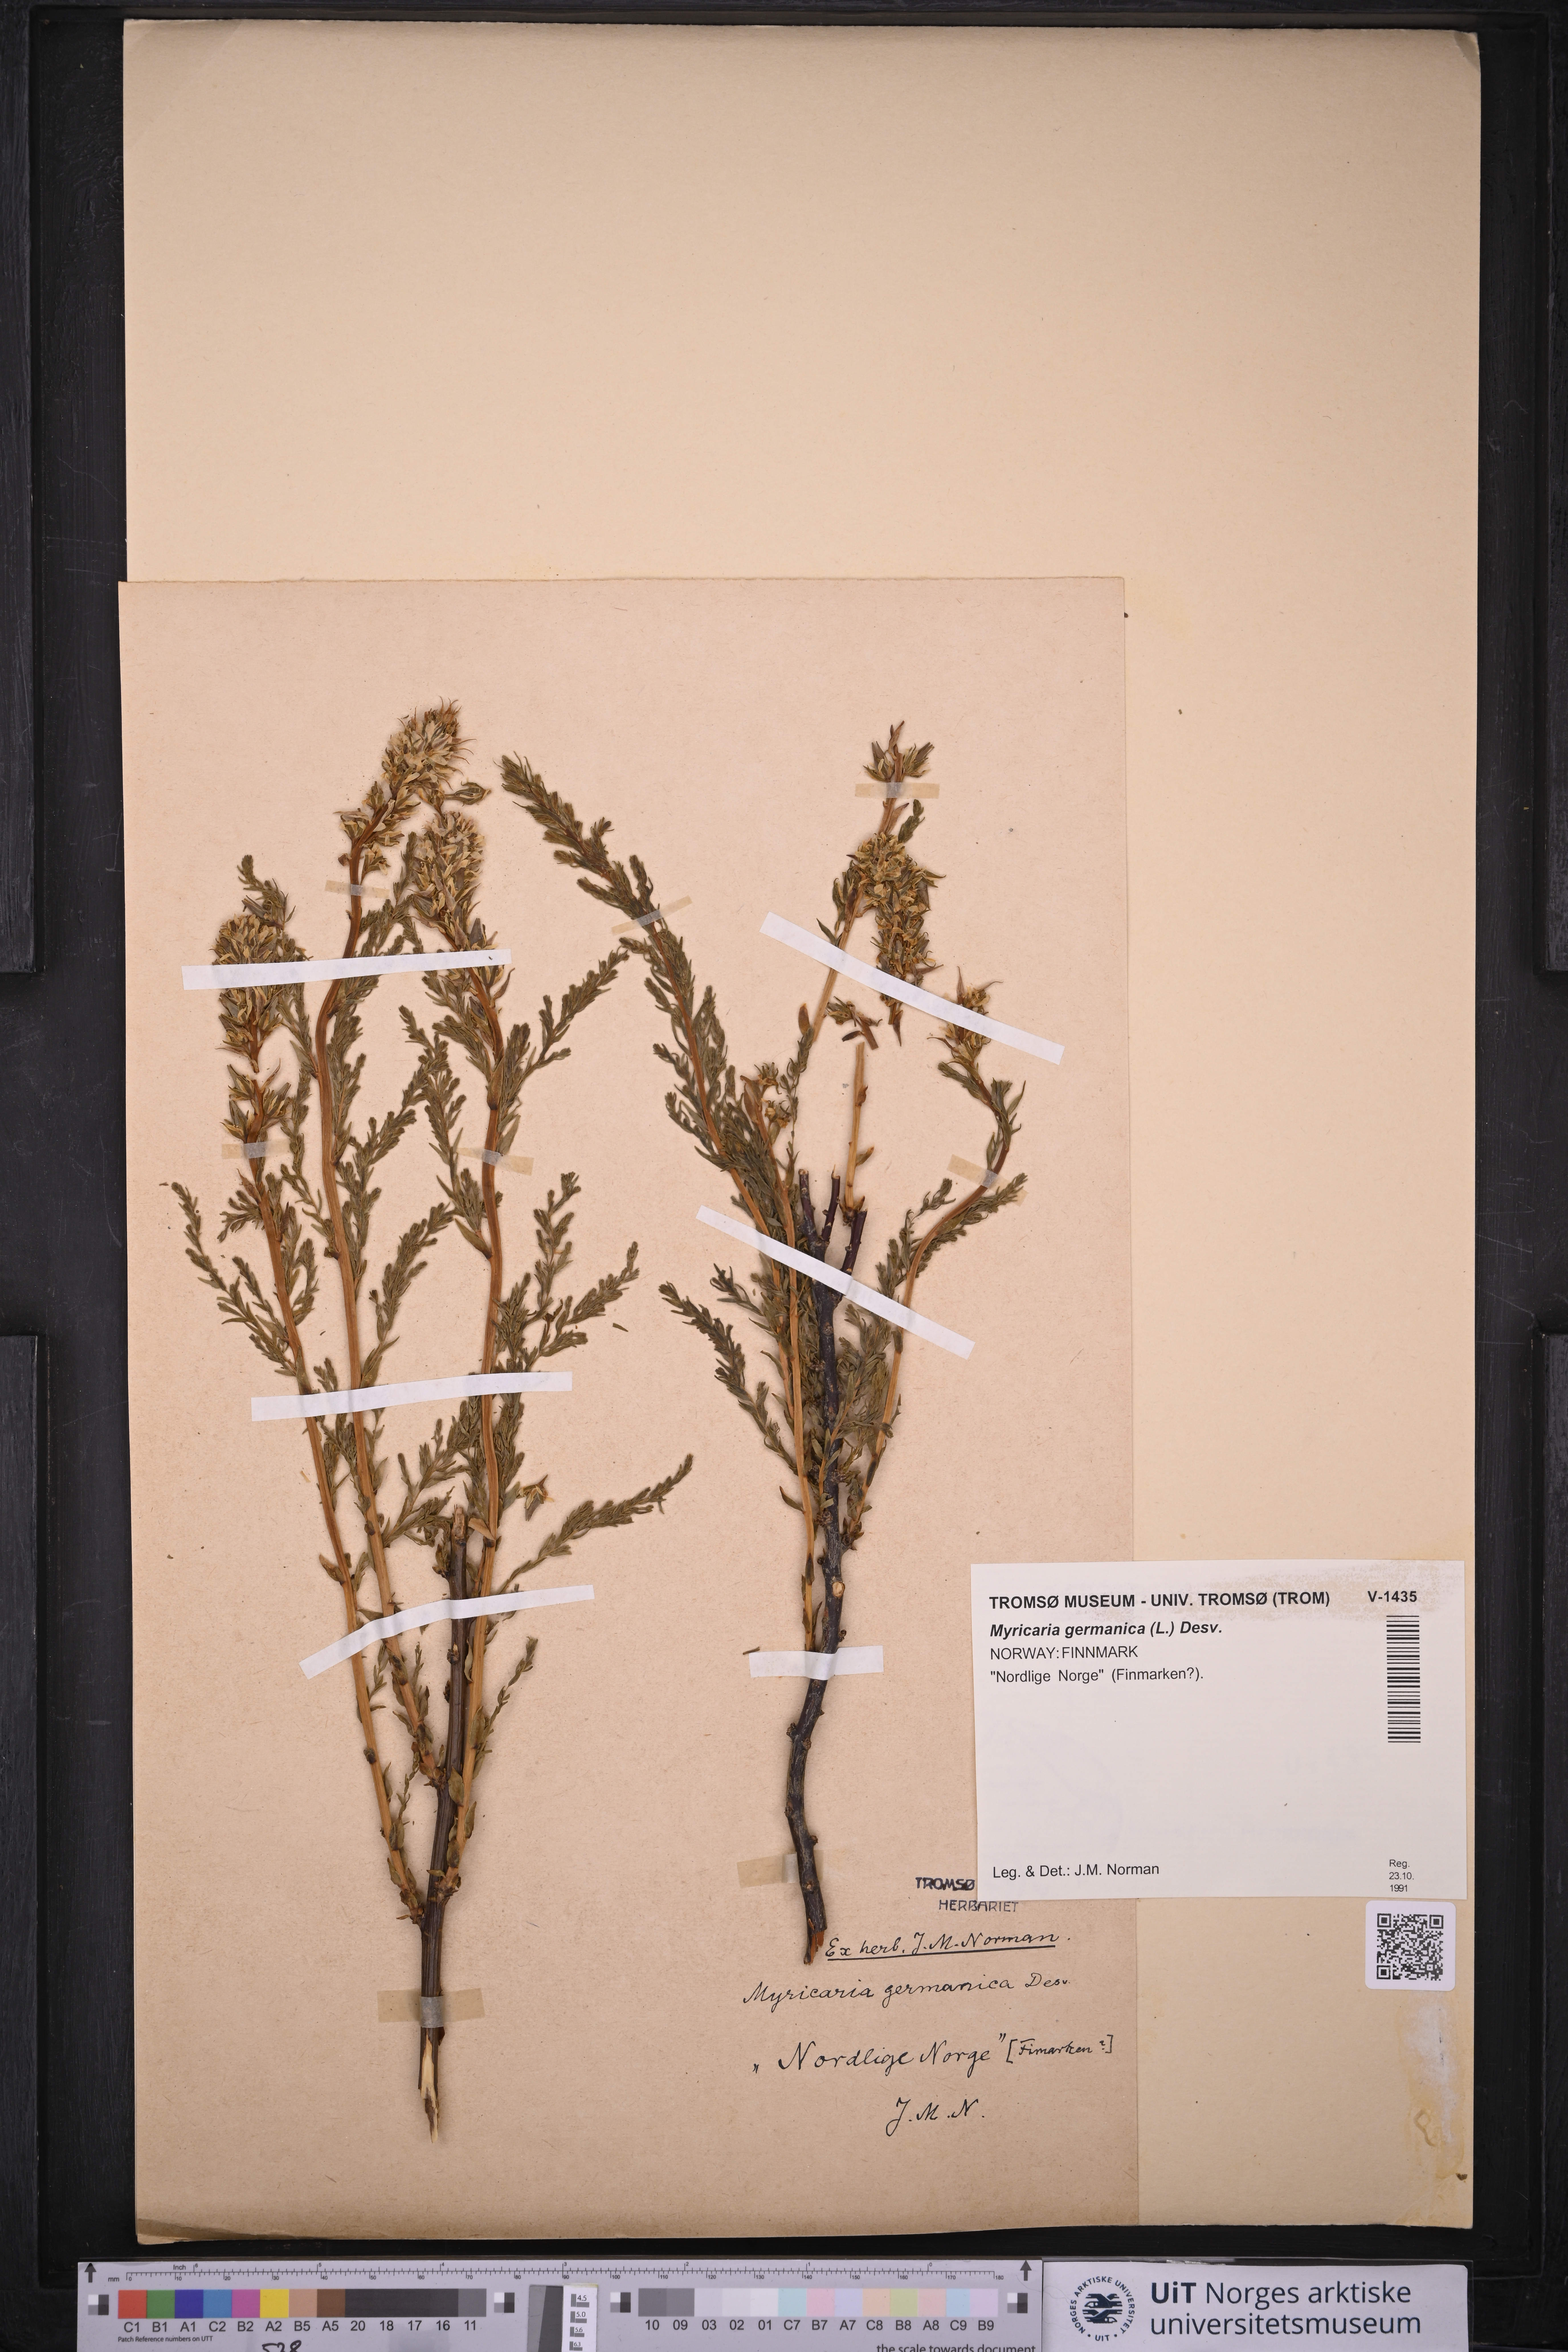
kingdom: Plantae
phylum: Tracheophyta
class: Magnoliopsida
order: Caryophyllales
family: Tamaricaceae
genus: Myricaria
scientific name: Myricaria germanica
